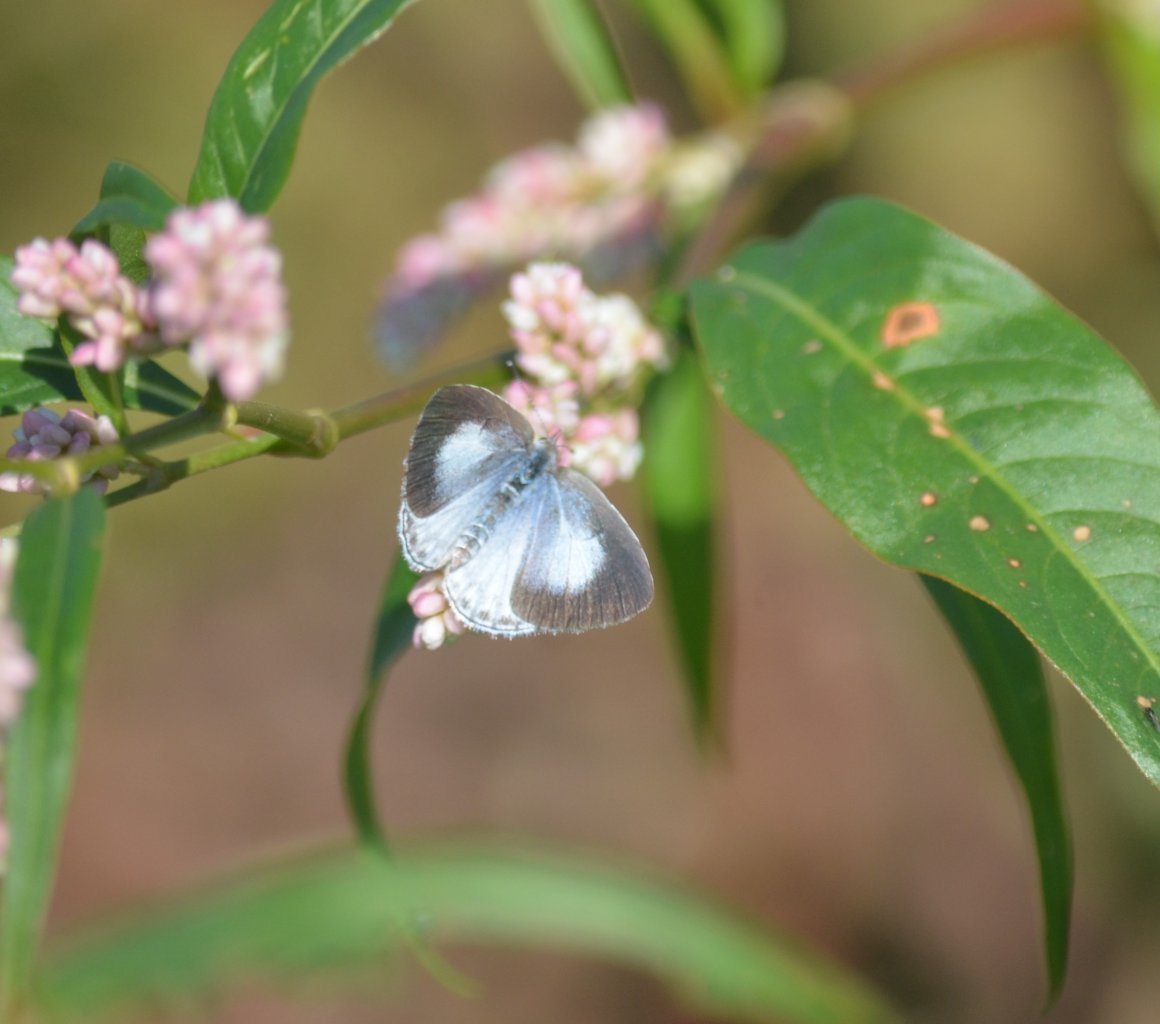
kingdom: Animalia
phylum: Arthropoda
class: Insecta
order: Lepidoptera
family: Lycaenidae
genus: Cyaniris
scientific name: Cyaniris neglecta
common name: Summer Azure
